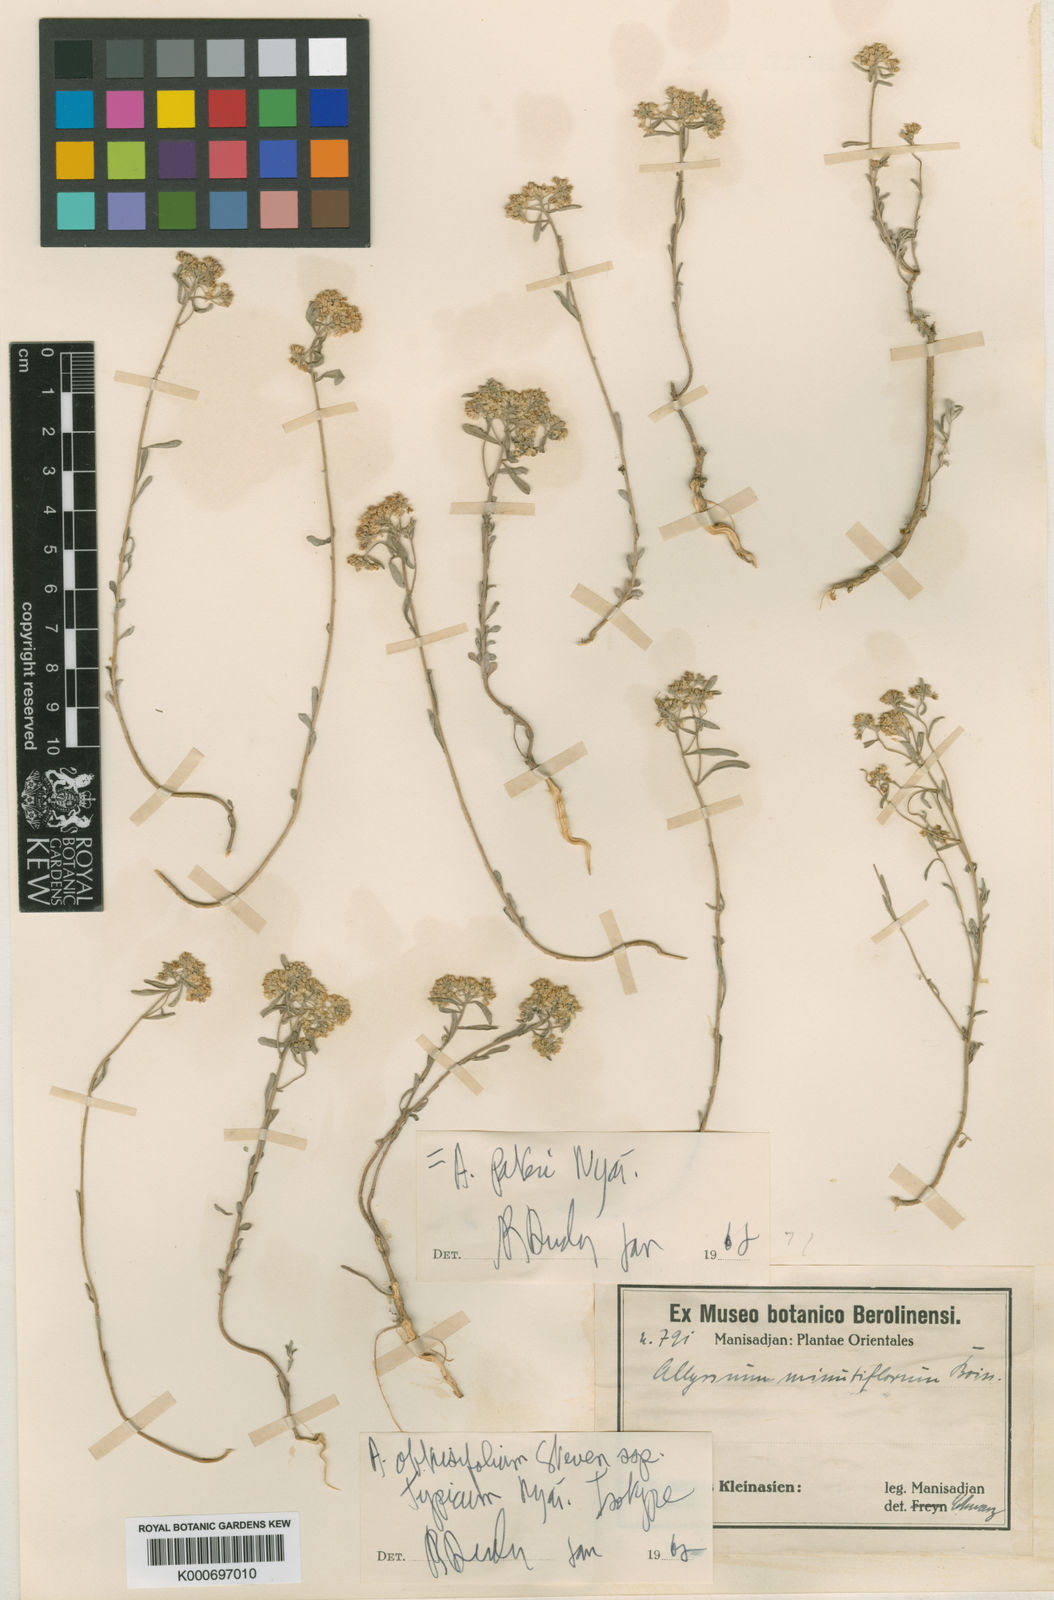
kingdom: Plantae
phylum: Tracheophyta
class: Magnoliopsida
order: Brassicales
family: Brassicaceae
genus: Odontarrhena
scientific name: Odontarrhena pateri
